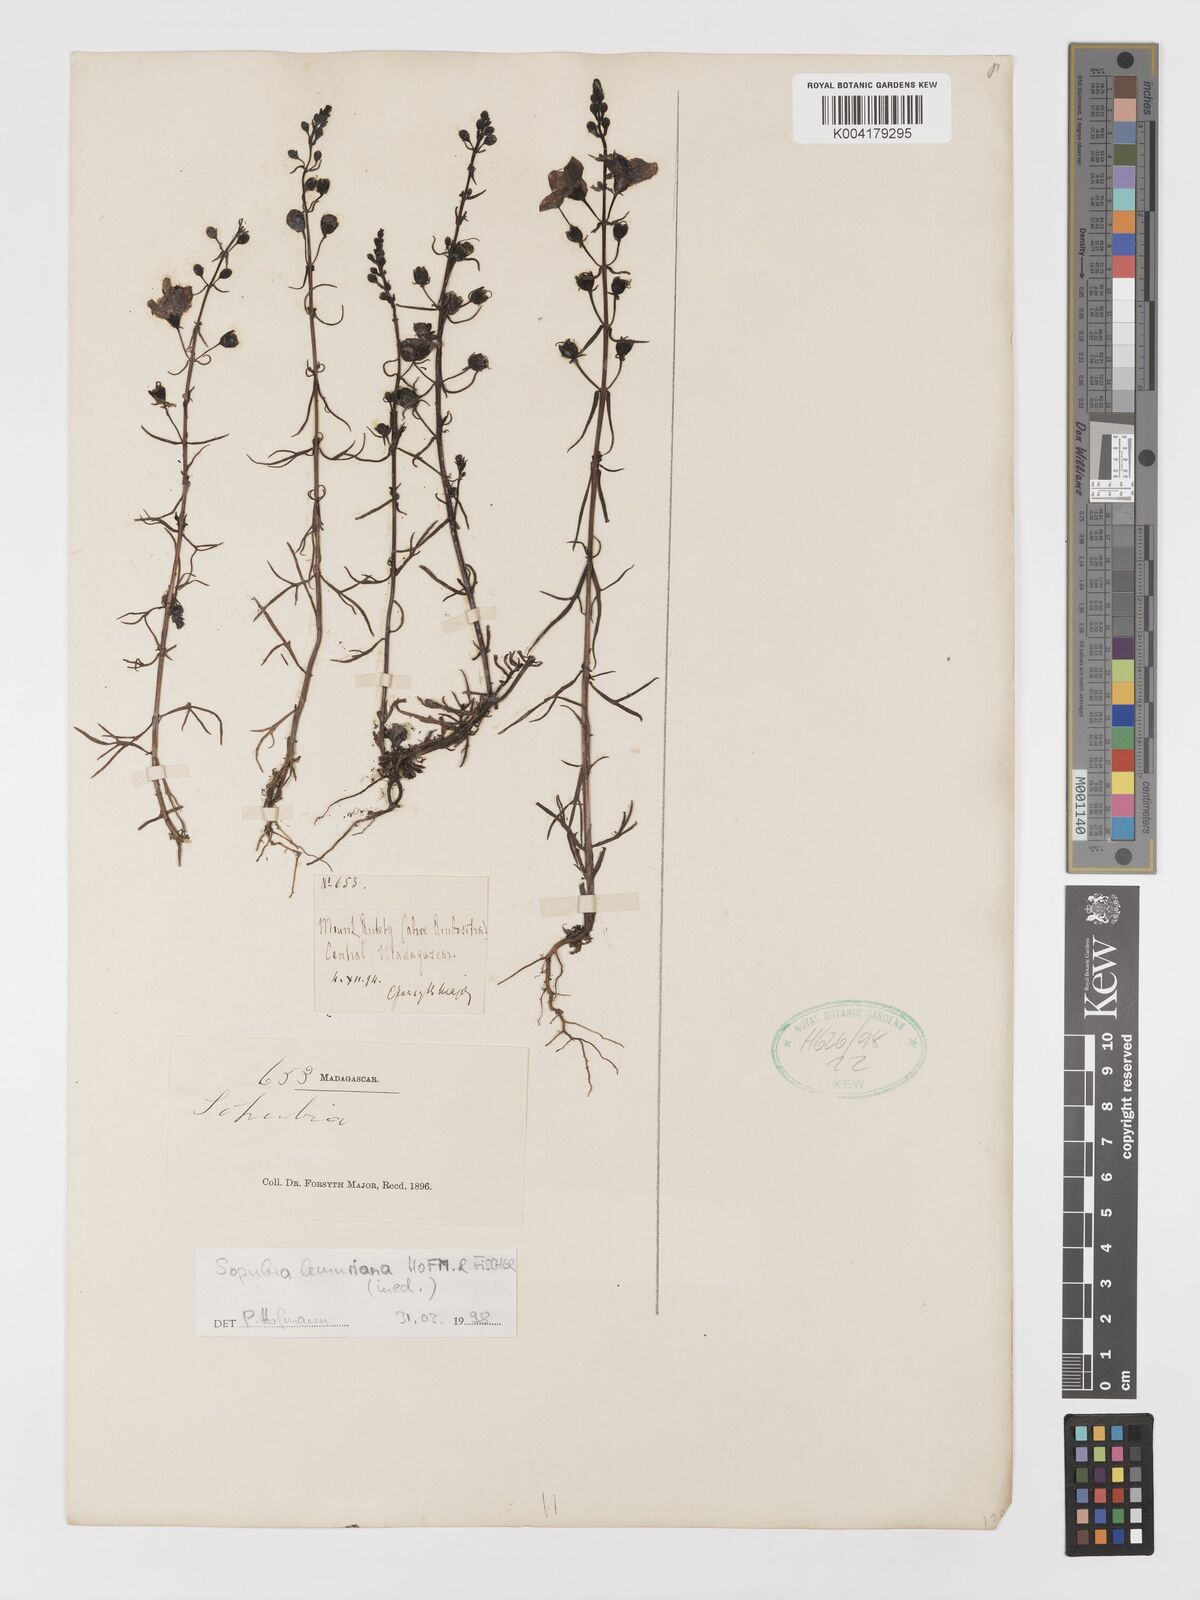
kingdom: Plantae
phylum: Tracheophyta
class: Magnoliopsida
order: Lamiales
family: Orobanchaceae
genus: Sopubia
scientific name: Sopubia lemuriana
